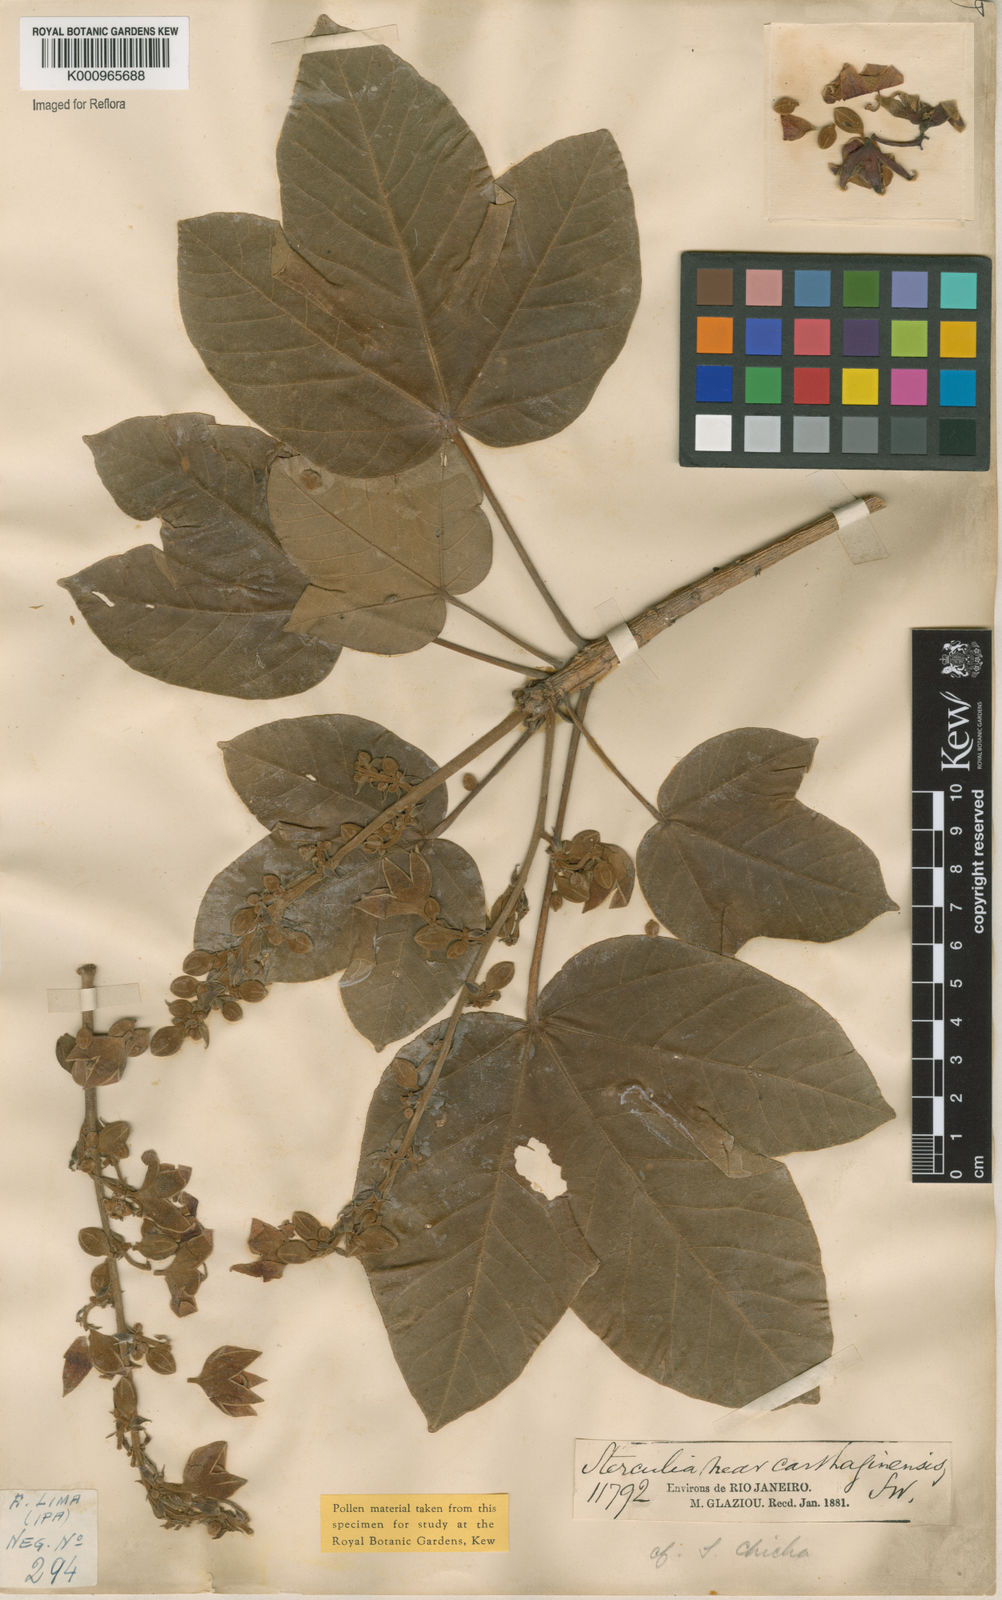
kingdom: Plantae
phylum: Tracheophyta
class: Magnoliopsida
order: Malvales
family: Malvaceae
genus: Sterculia
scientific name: Sterculia apetala
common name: Panama tree
